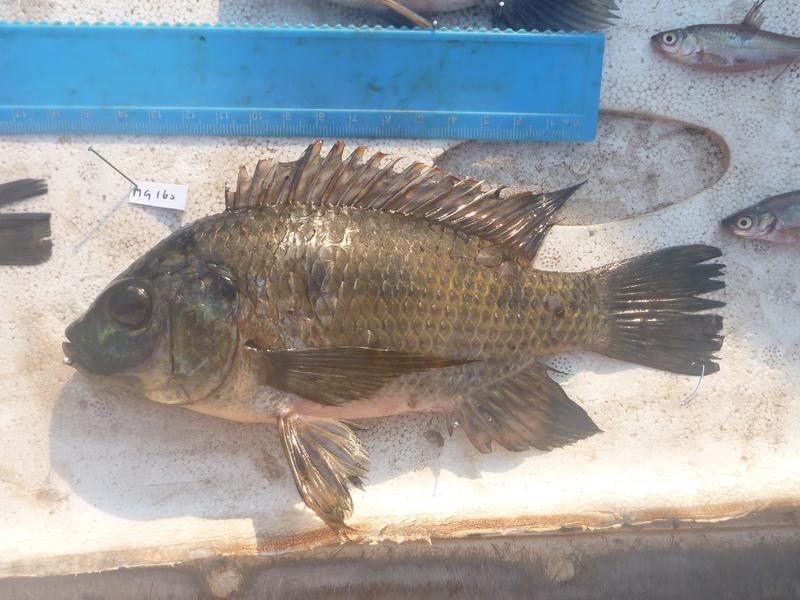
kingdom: Animalia
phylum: Chordata
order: Perciformes
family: Cichlidae
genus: Oreochromis
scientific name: Oreochromis upembae
